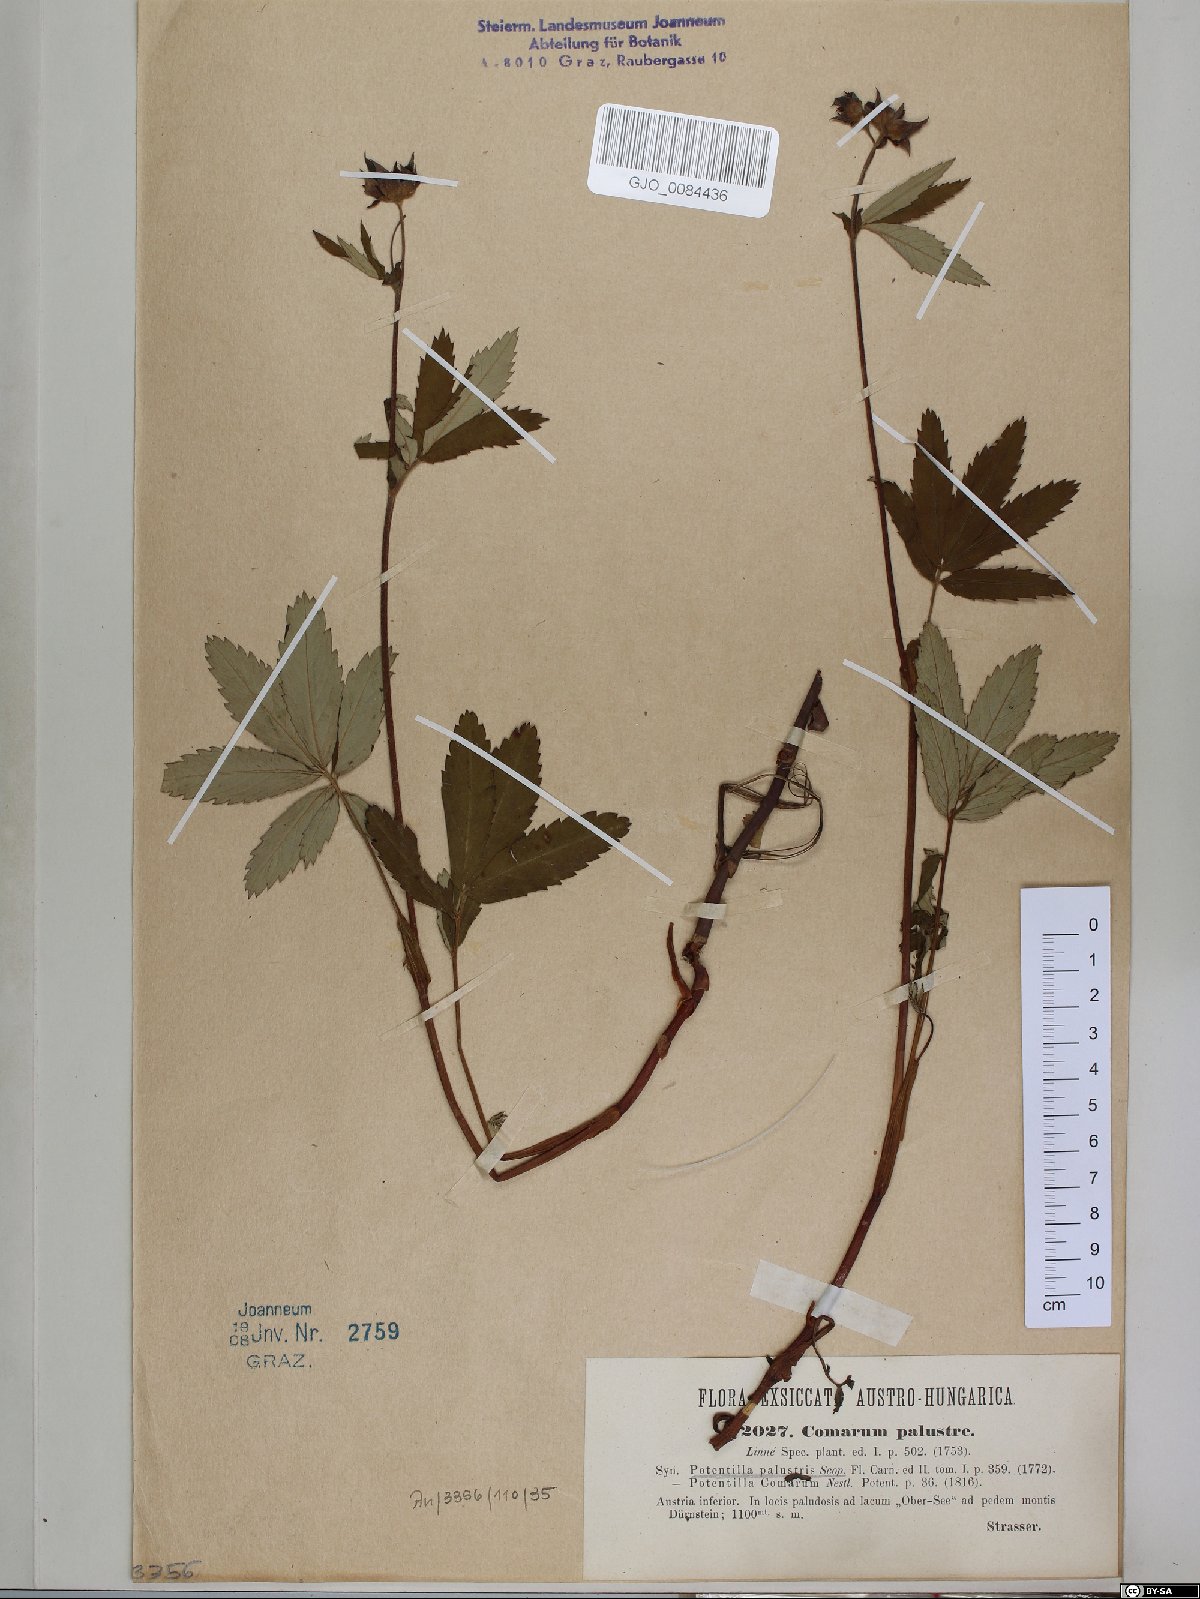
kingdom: Plantae
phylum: Tracheophyta
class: Magnoliopsida
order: Rosales
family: Rosaceae
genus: Comarum
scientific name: Comarum palustre
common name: Marsh cinquefoil
